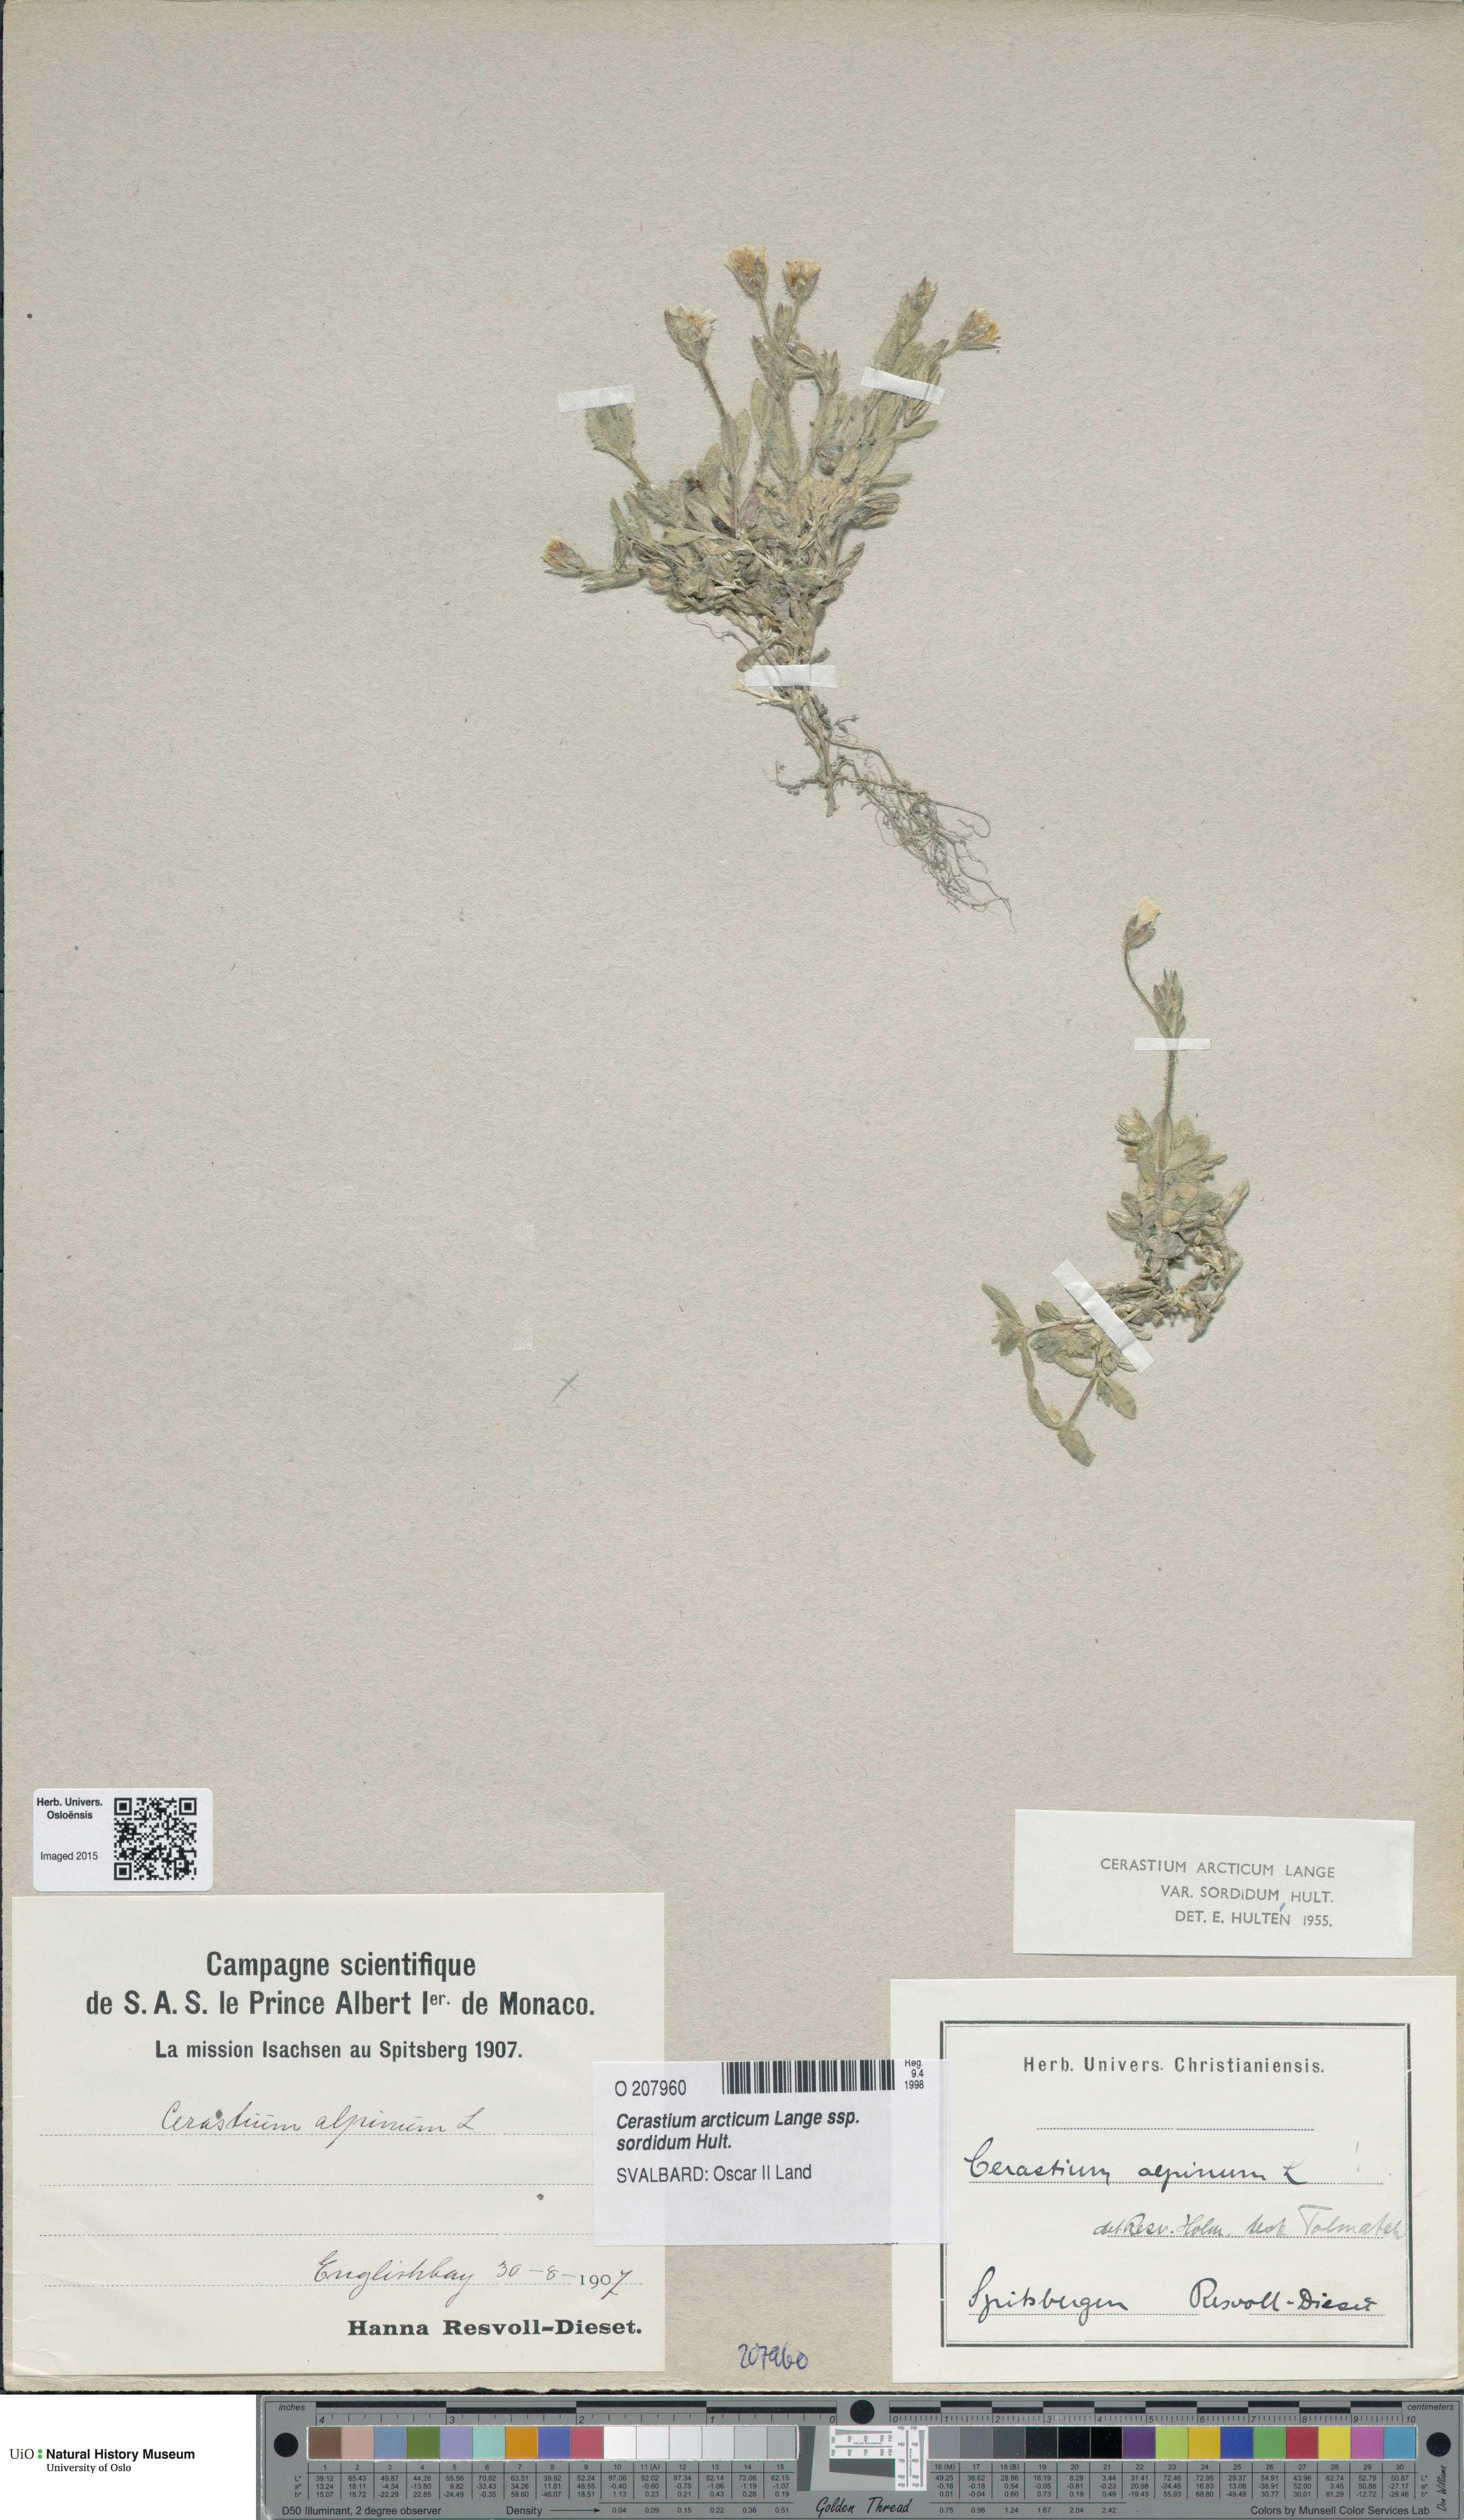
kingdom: Plantae
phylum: Tracheophyta
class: Magnoliopsida
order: Caryophyllales
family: Caryophyllaceae
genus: Cerastium
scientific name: Cerastium sordidum
